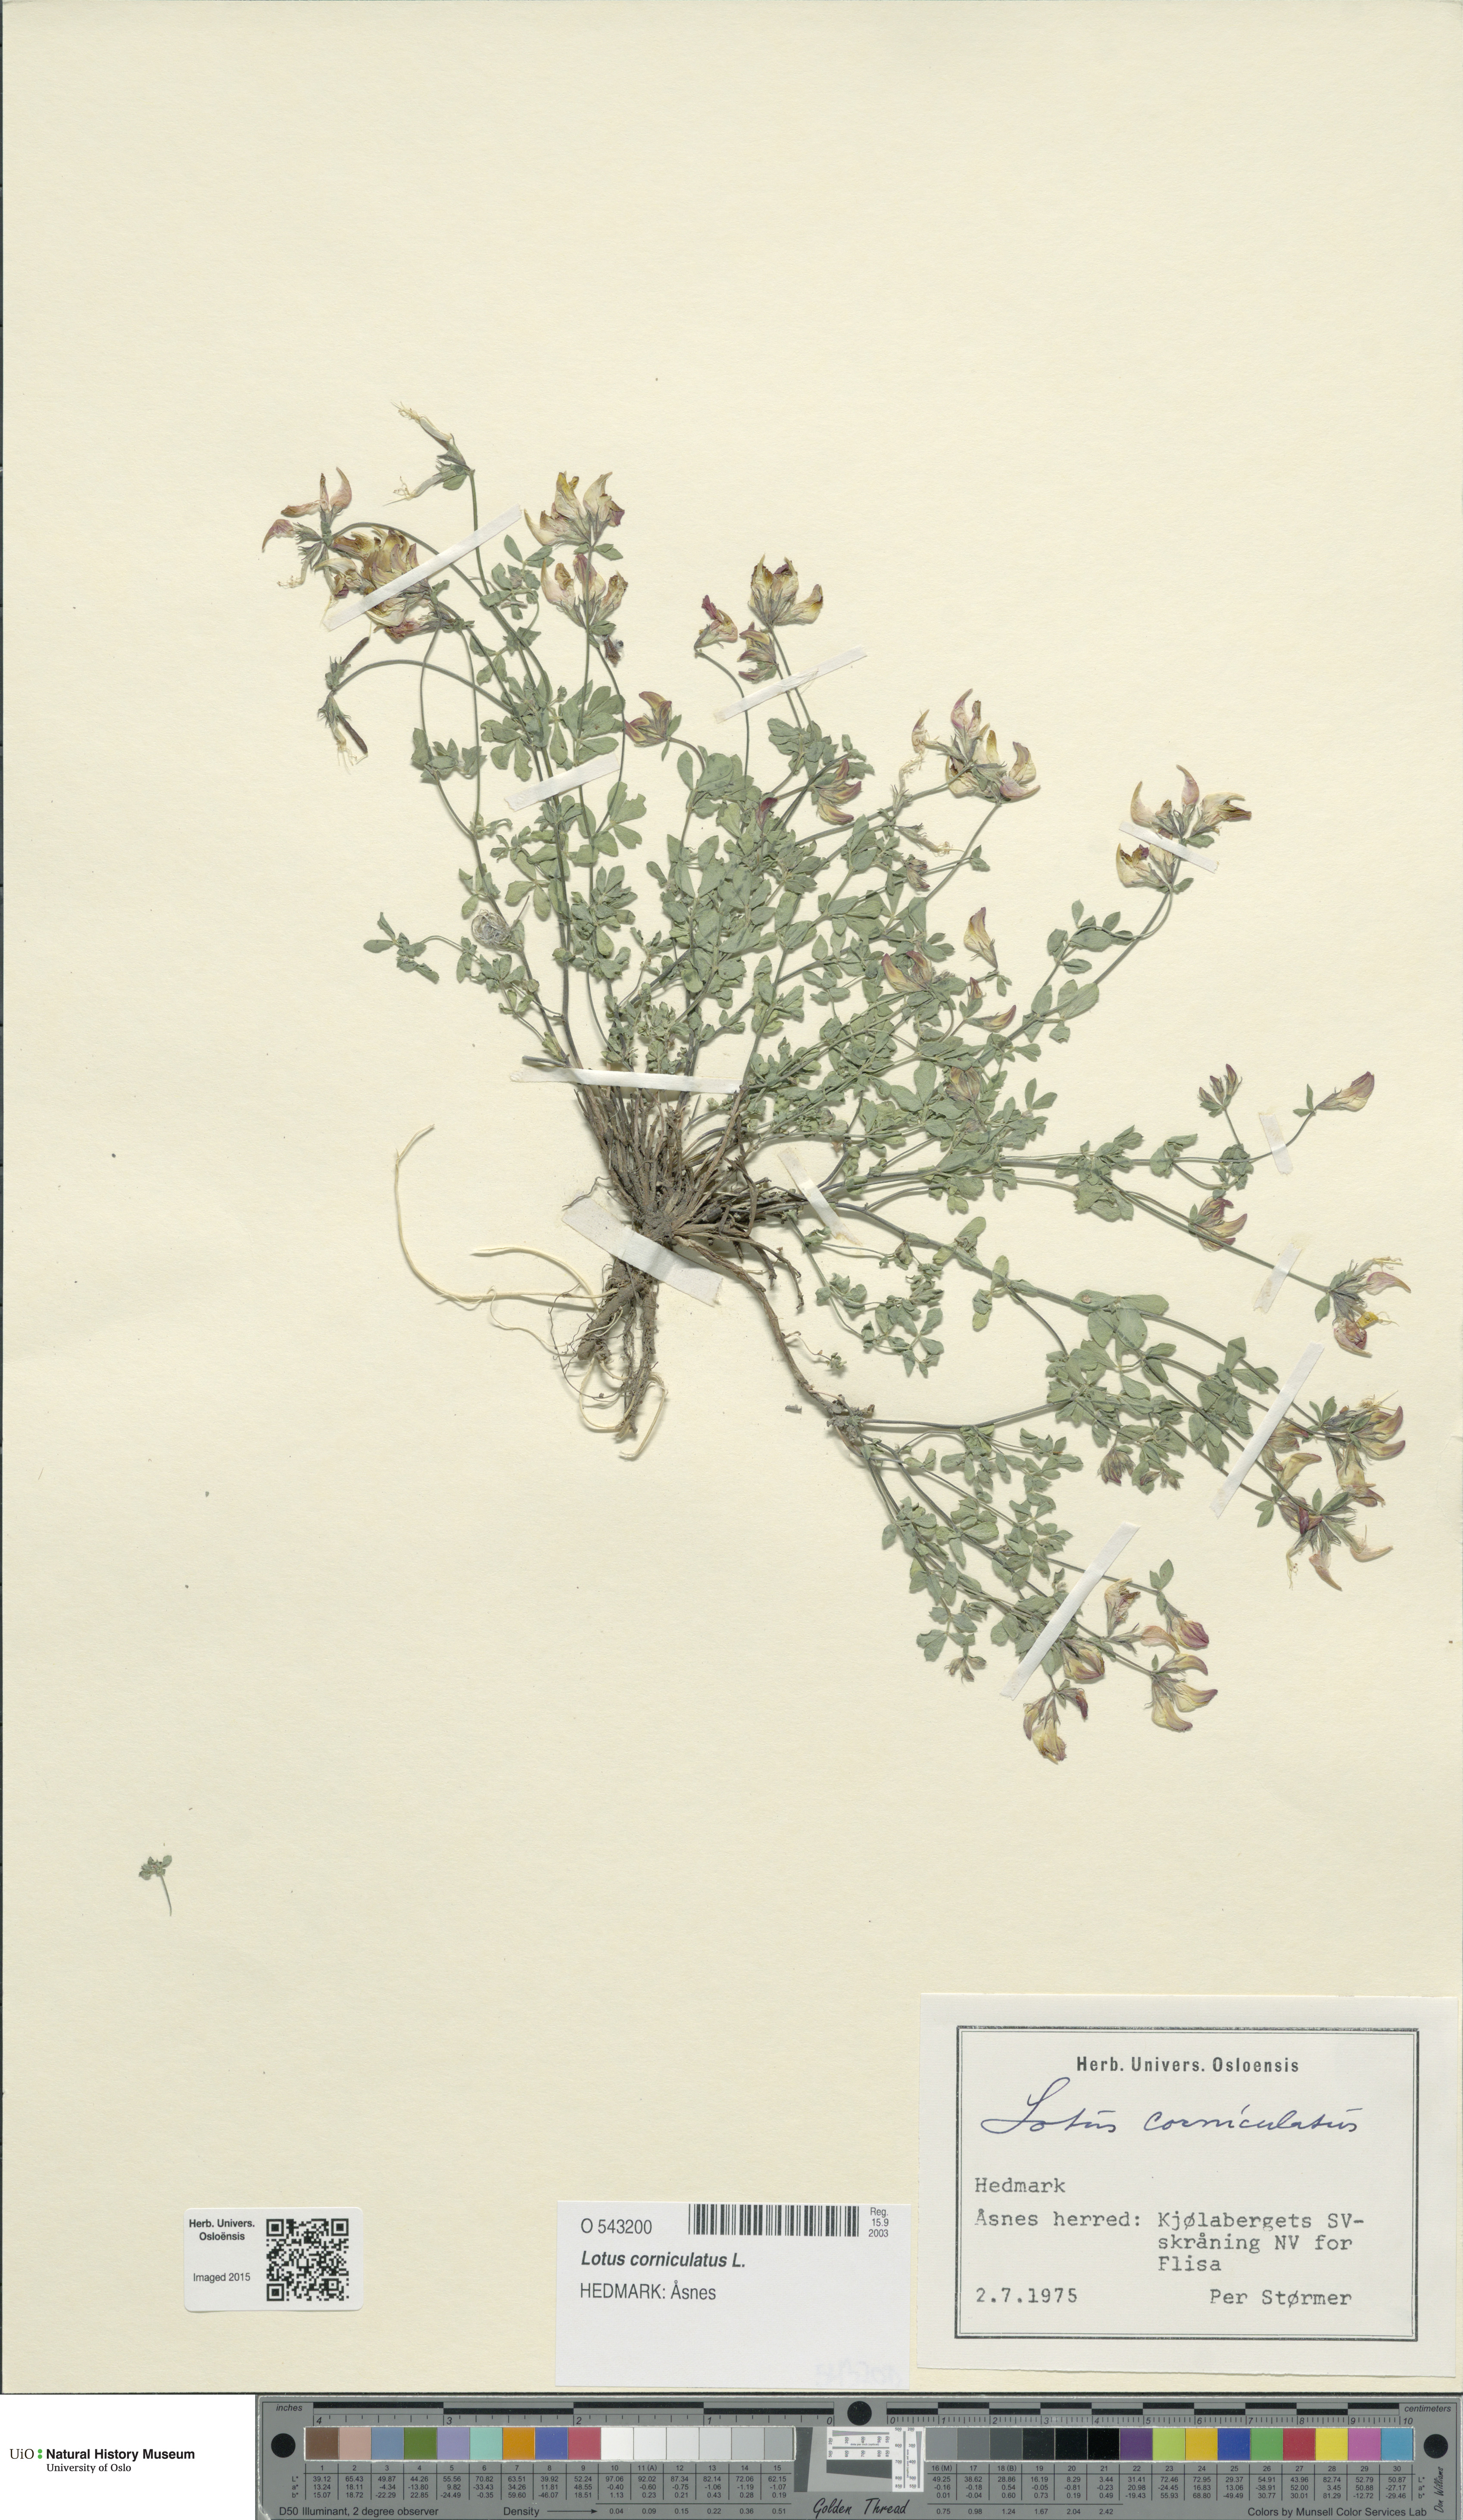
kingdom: Plantae
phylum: Tracheophyta
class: Magnoliopsida
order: Fabales
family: Fabaceae
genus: Lotus
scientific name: Lotus corniculatus
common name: Common bird's-foot-trefoil
